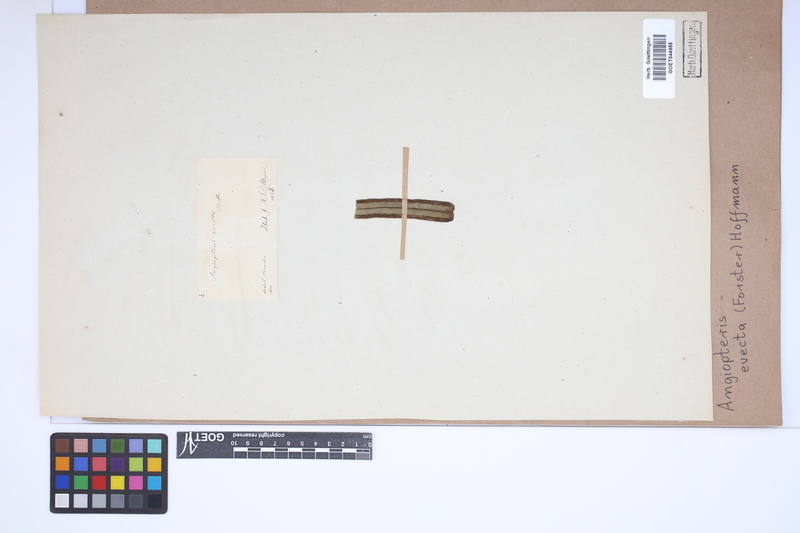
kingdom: Plantae
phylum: Tracheophyta
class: Polypodiopsida
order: Marattiales
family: Marattiaceae
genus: Angiopteris
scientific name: Angiopteris evecta
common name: Mule's-foot fern
